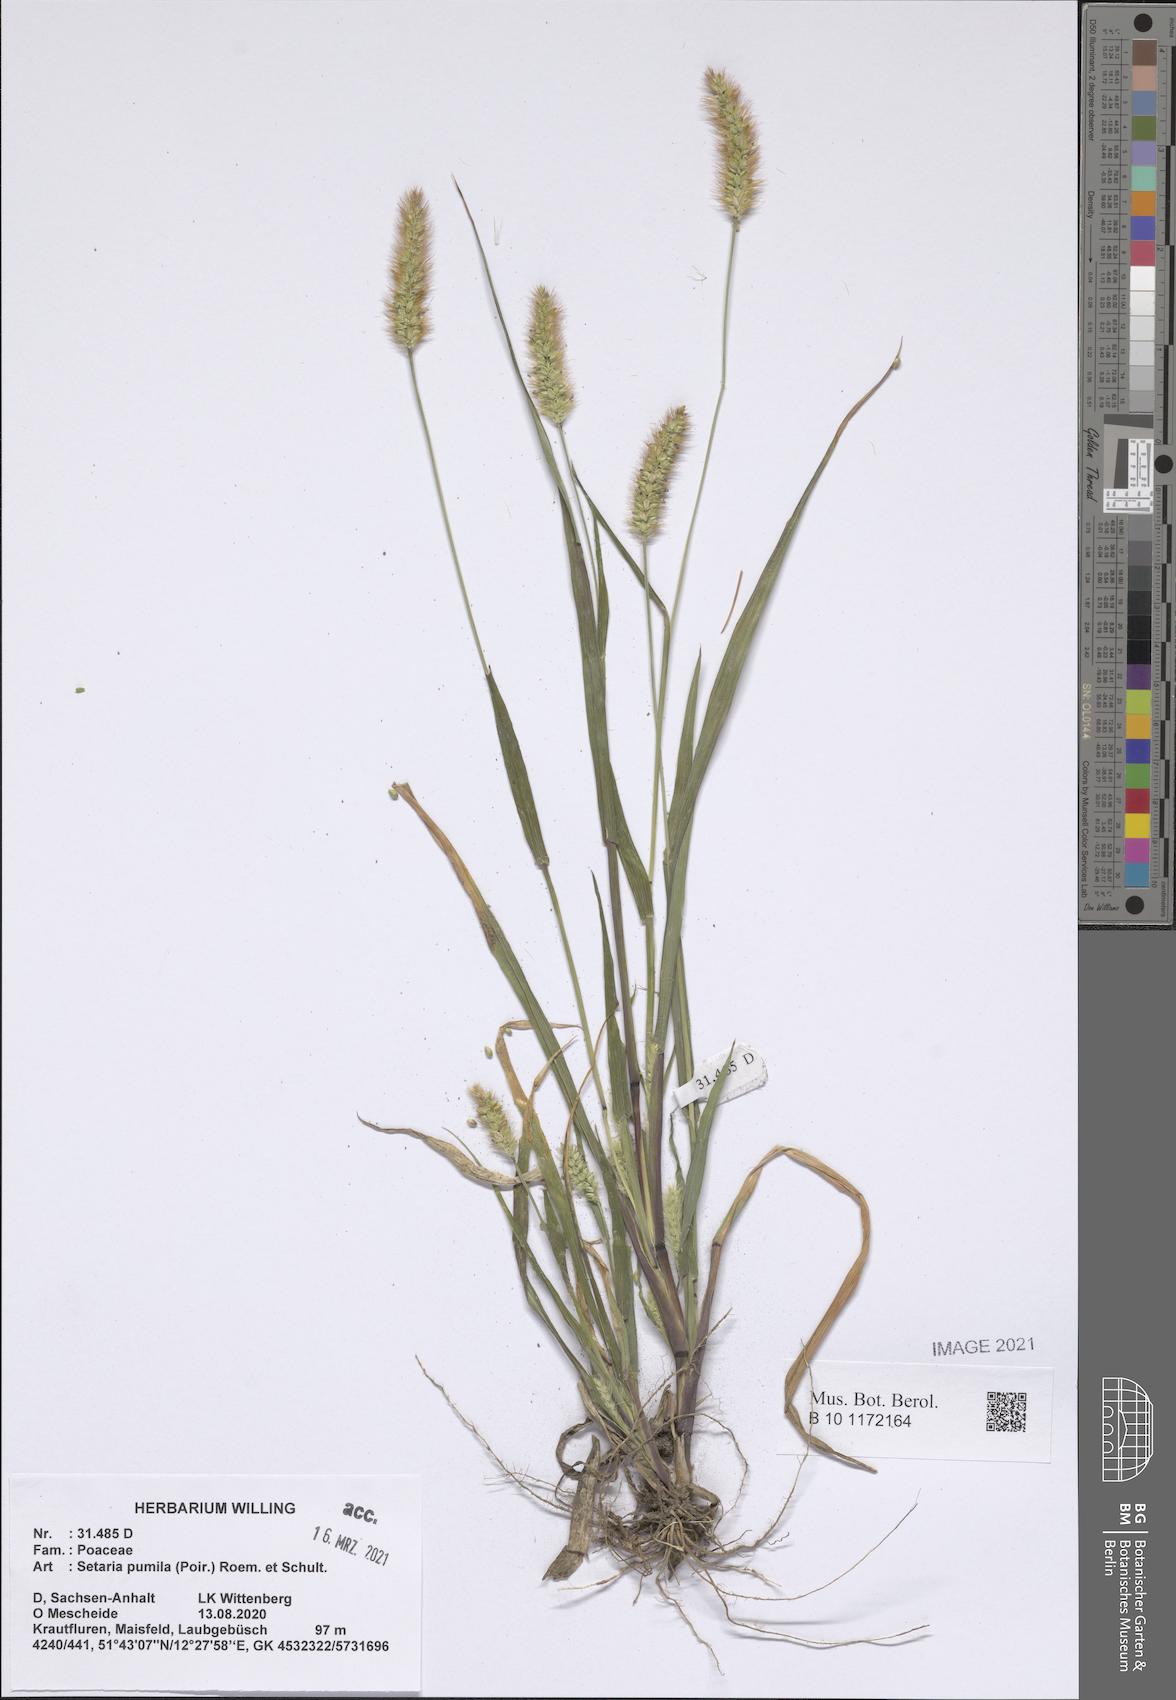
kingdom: Plantae
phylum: Tracheophyta
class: Liliopsida
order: Poales
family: Poaceae
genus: Setaria
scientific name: Setaria pumila
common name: Yellow bristle-grass
